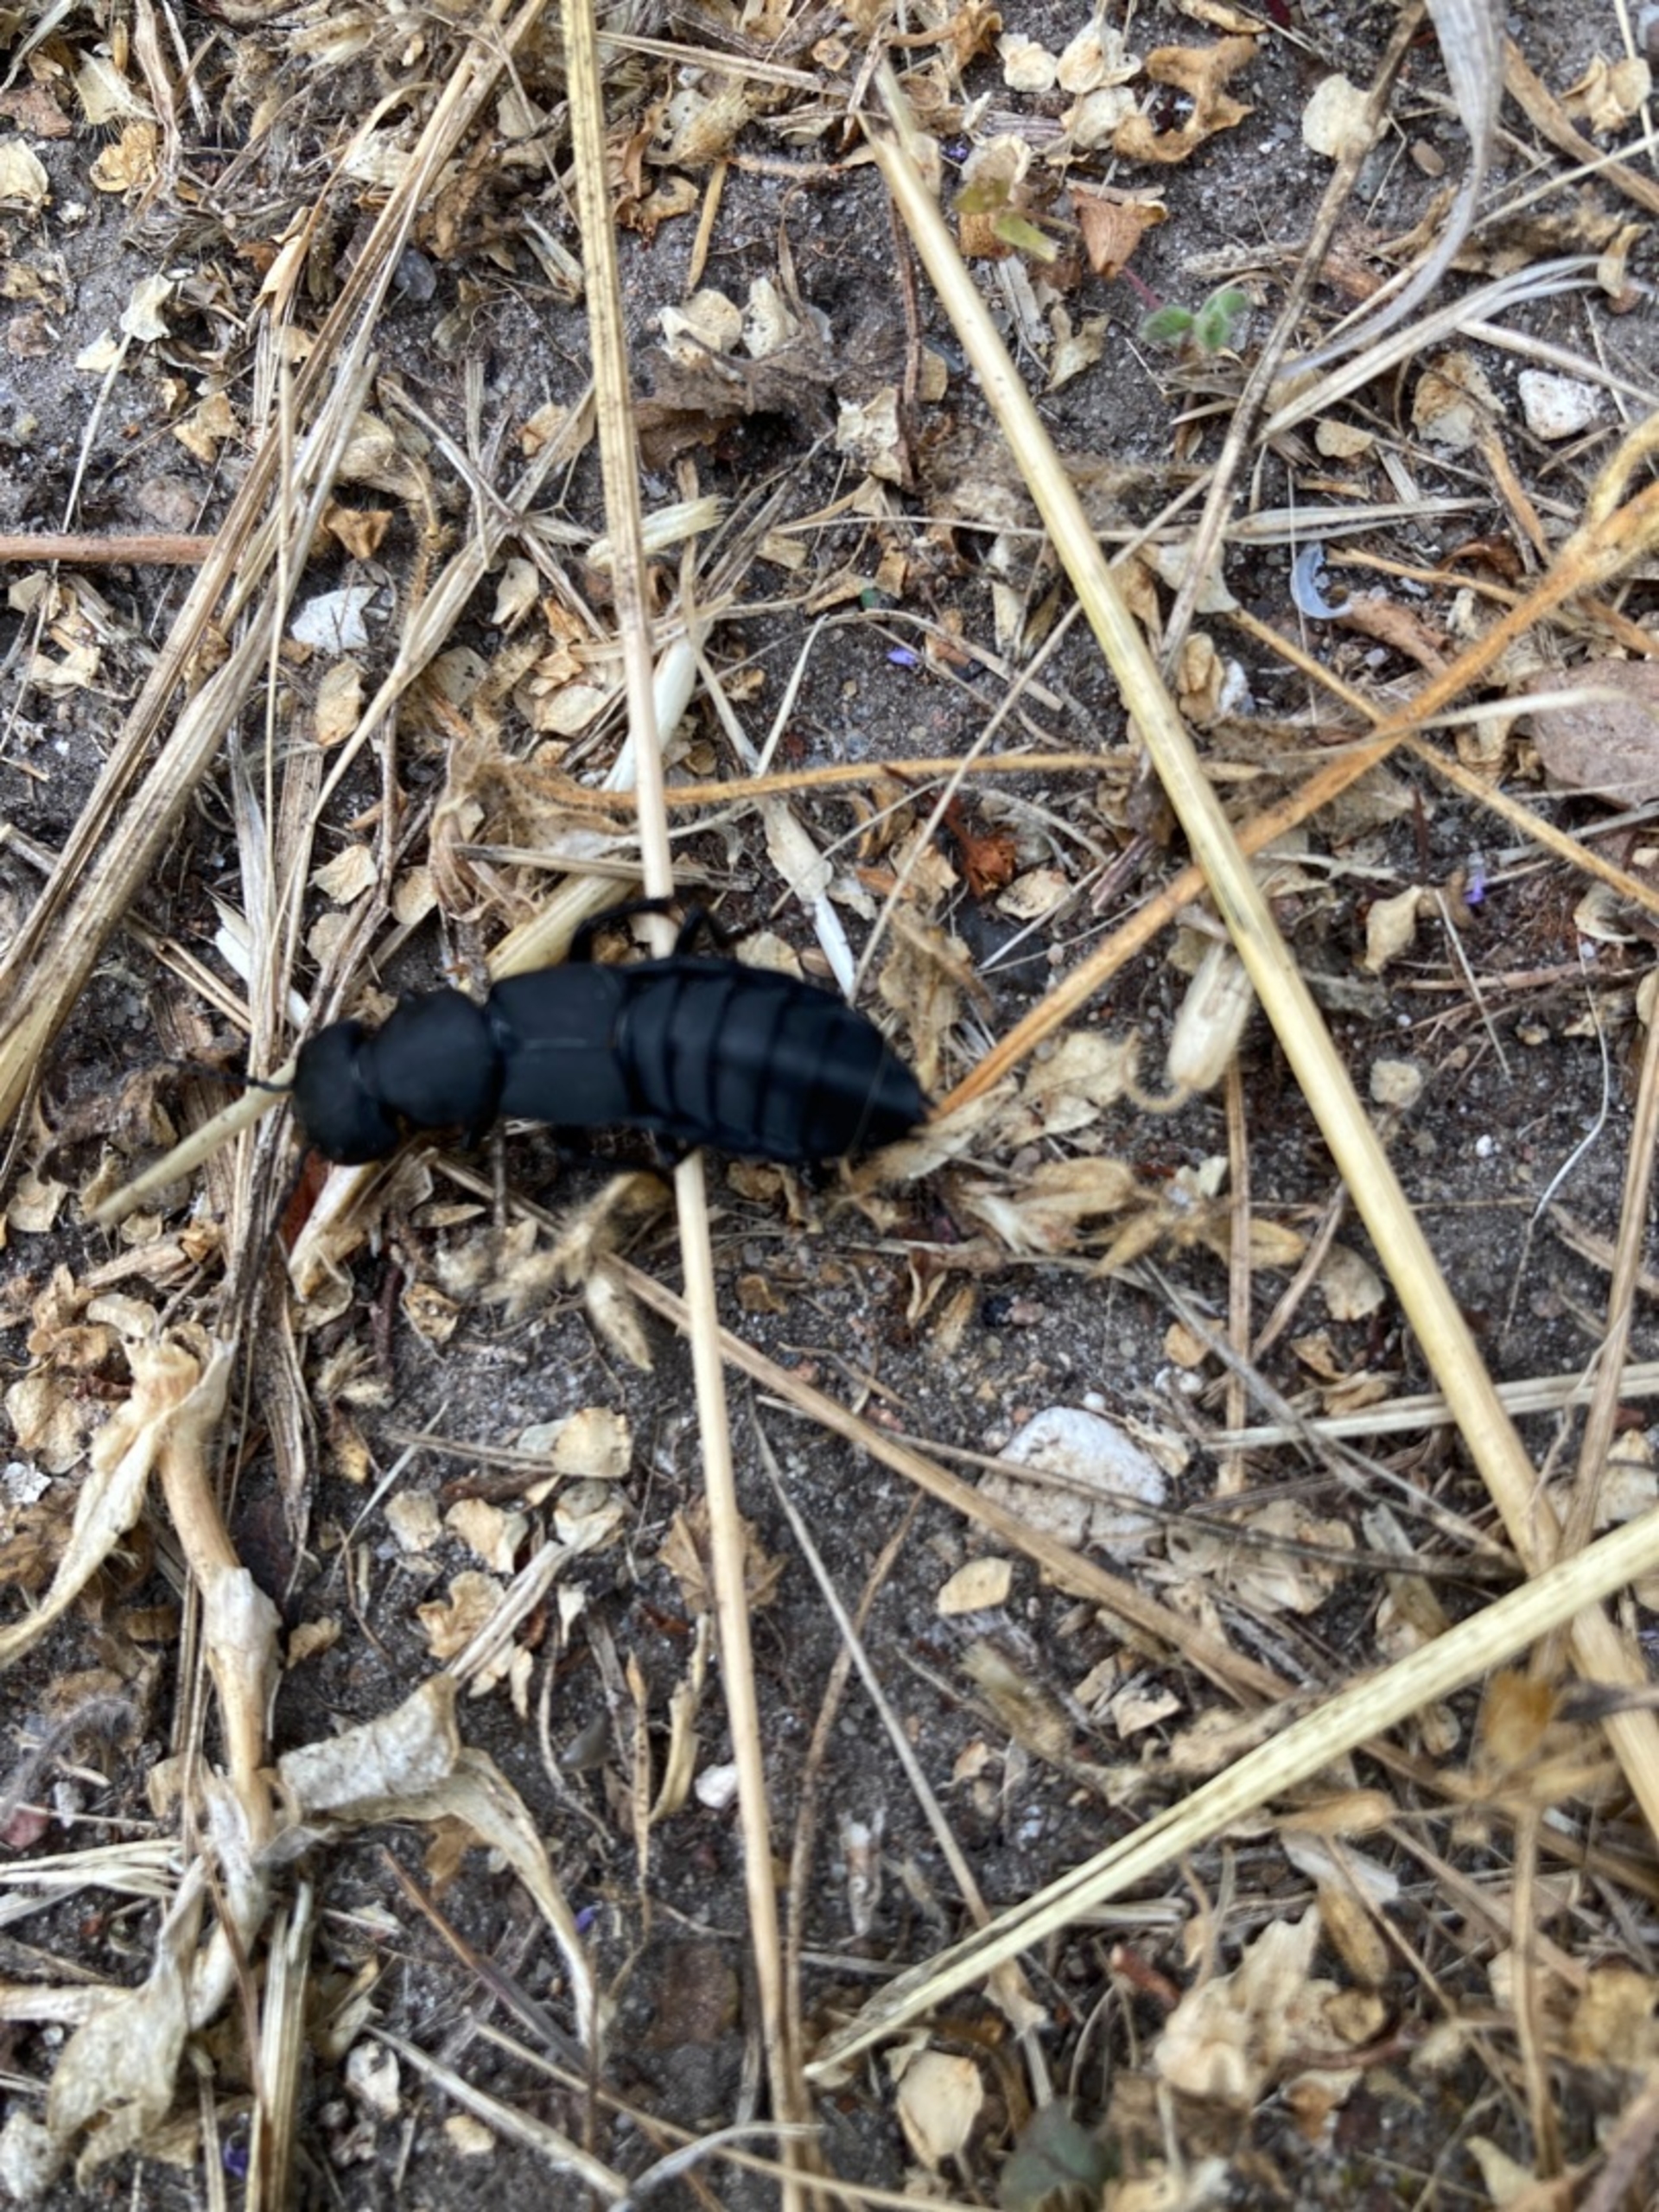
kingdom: Animalia
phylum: Arthropoda
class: Insecta
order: Coleoptera
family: Staphylinidae
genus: Ocypus
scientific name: Ocypus olens
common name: Stor rovbille
